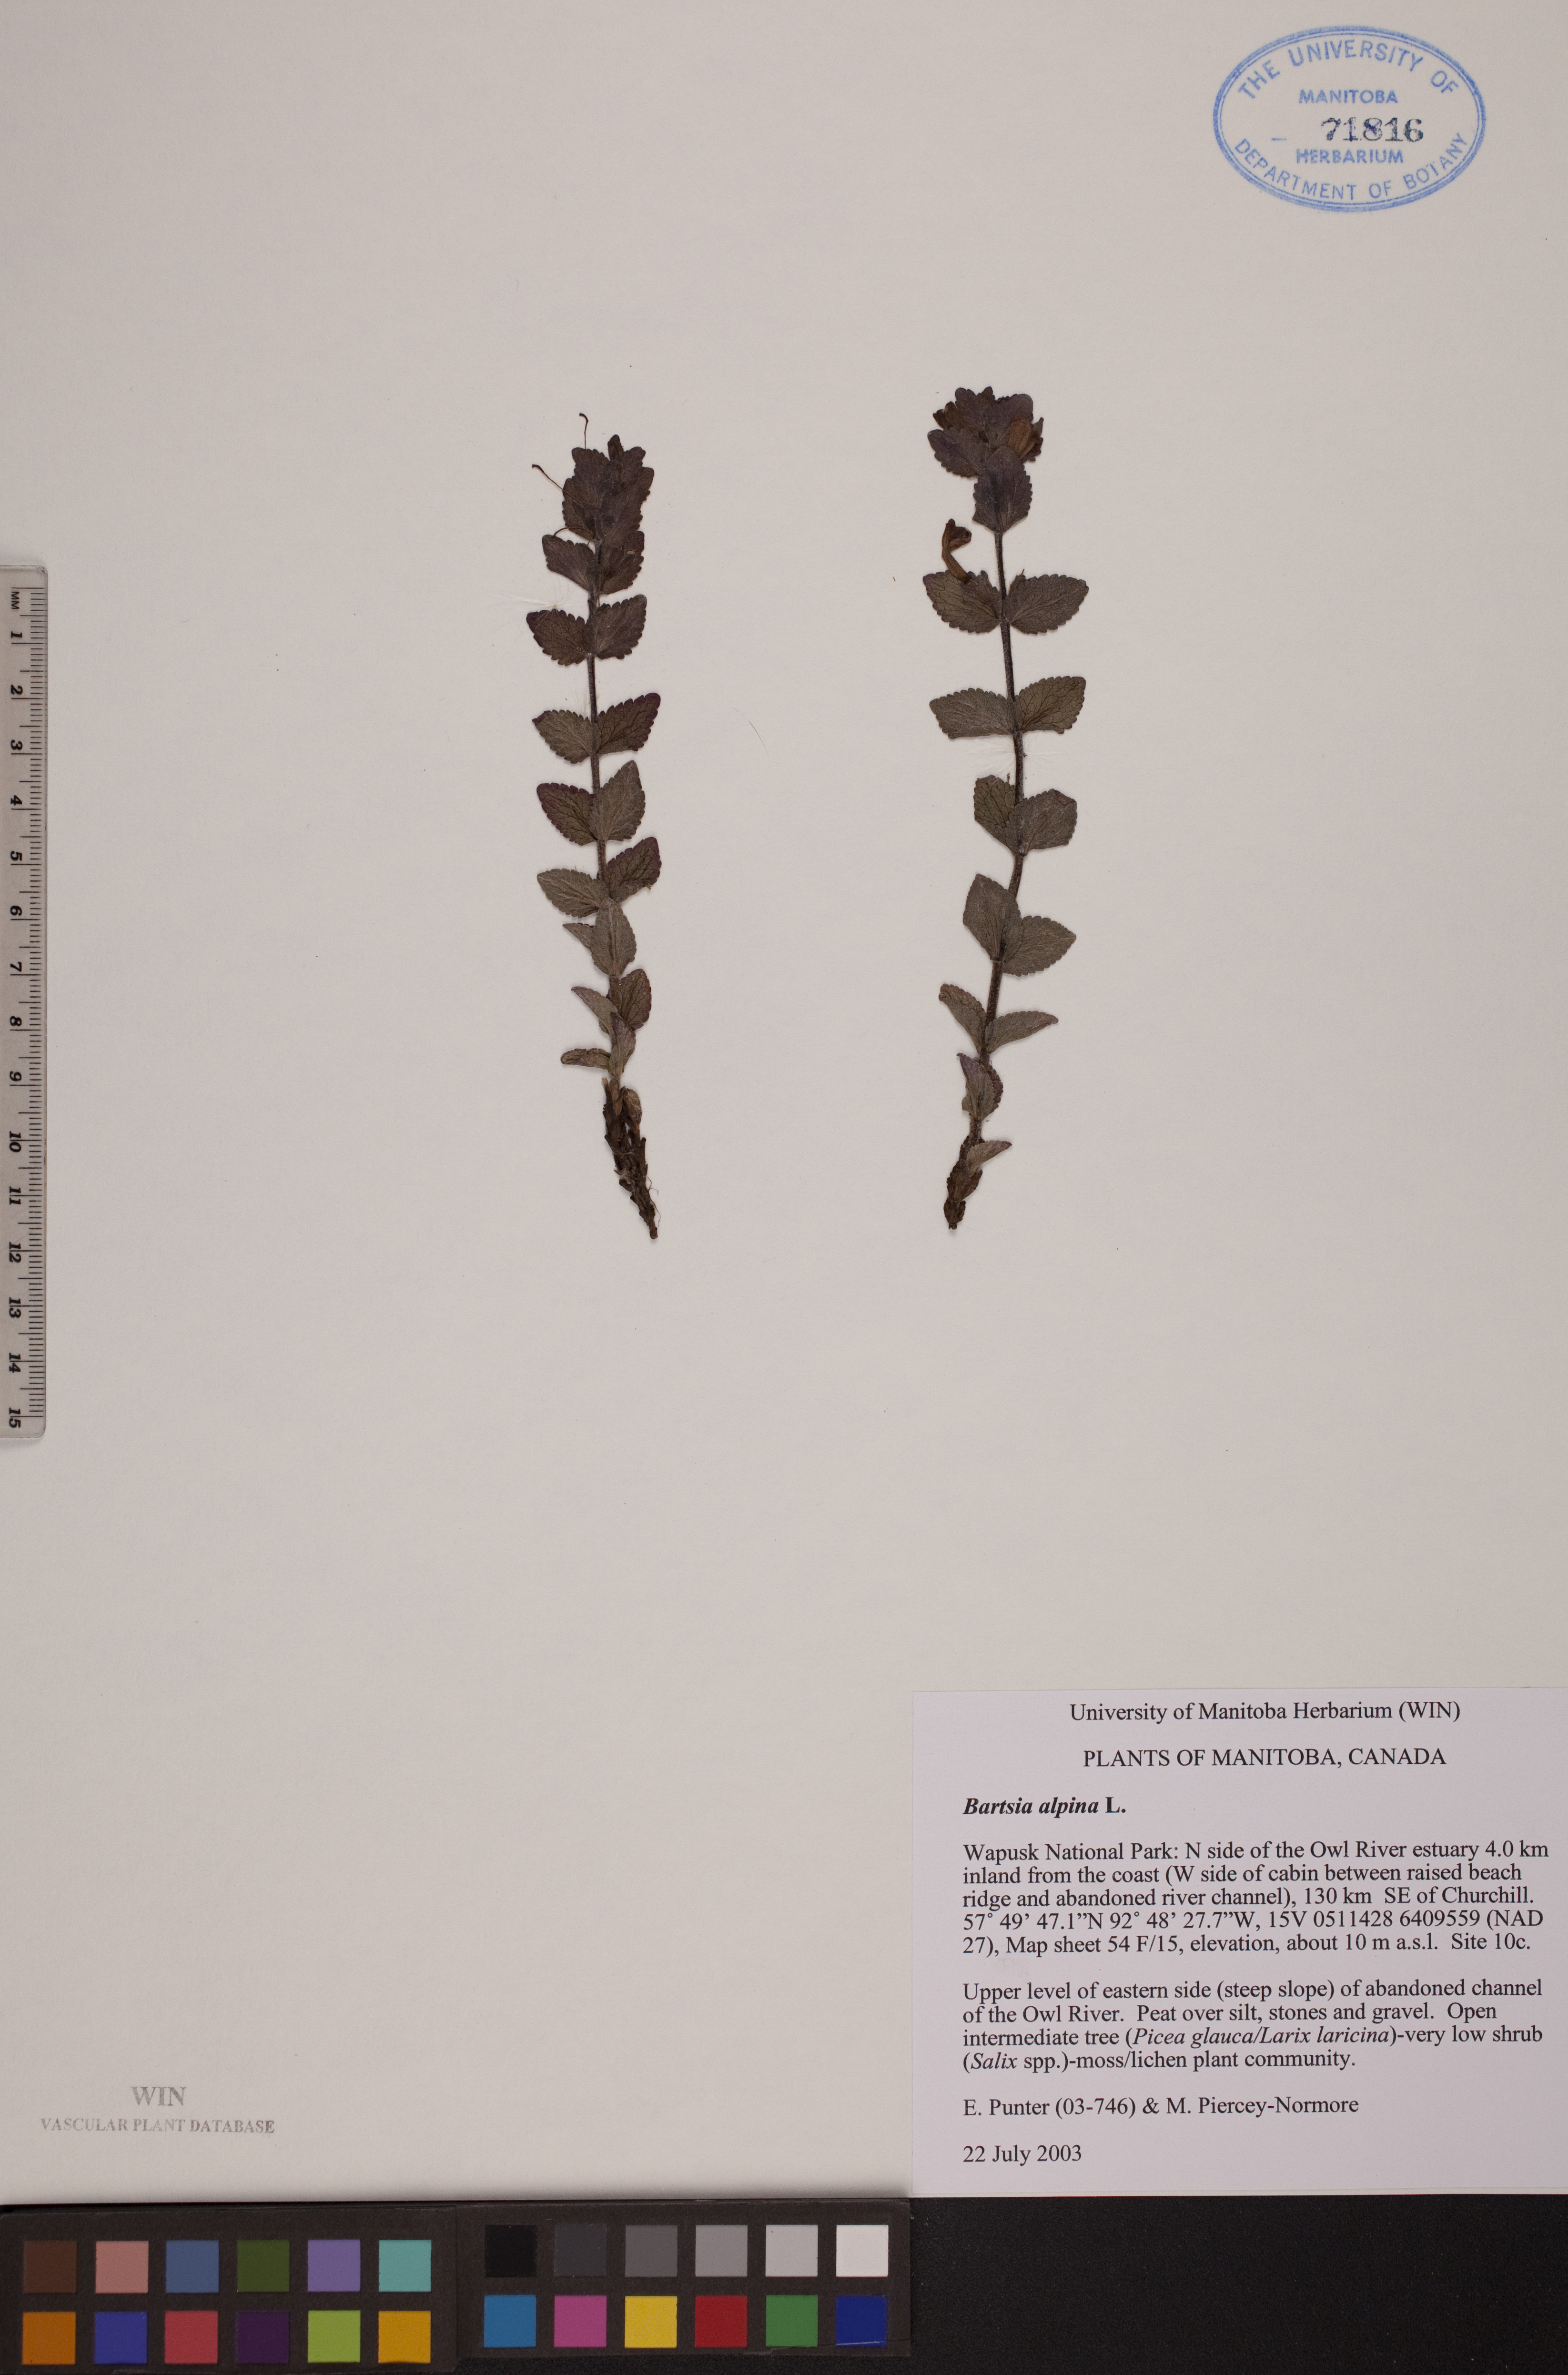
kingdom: Plantae
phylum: Tracheophyta
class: Magnoliopsida
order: Lamiales
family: Orobanchaceae
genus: Bartsia
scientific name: Bartsia alpina
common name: Alpine bartsia
